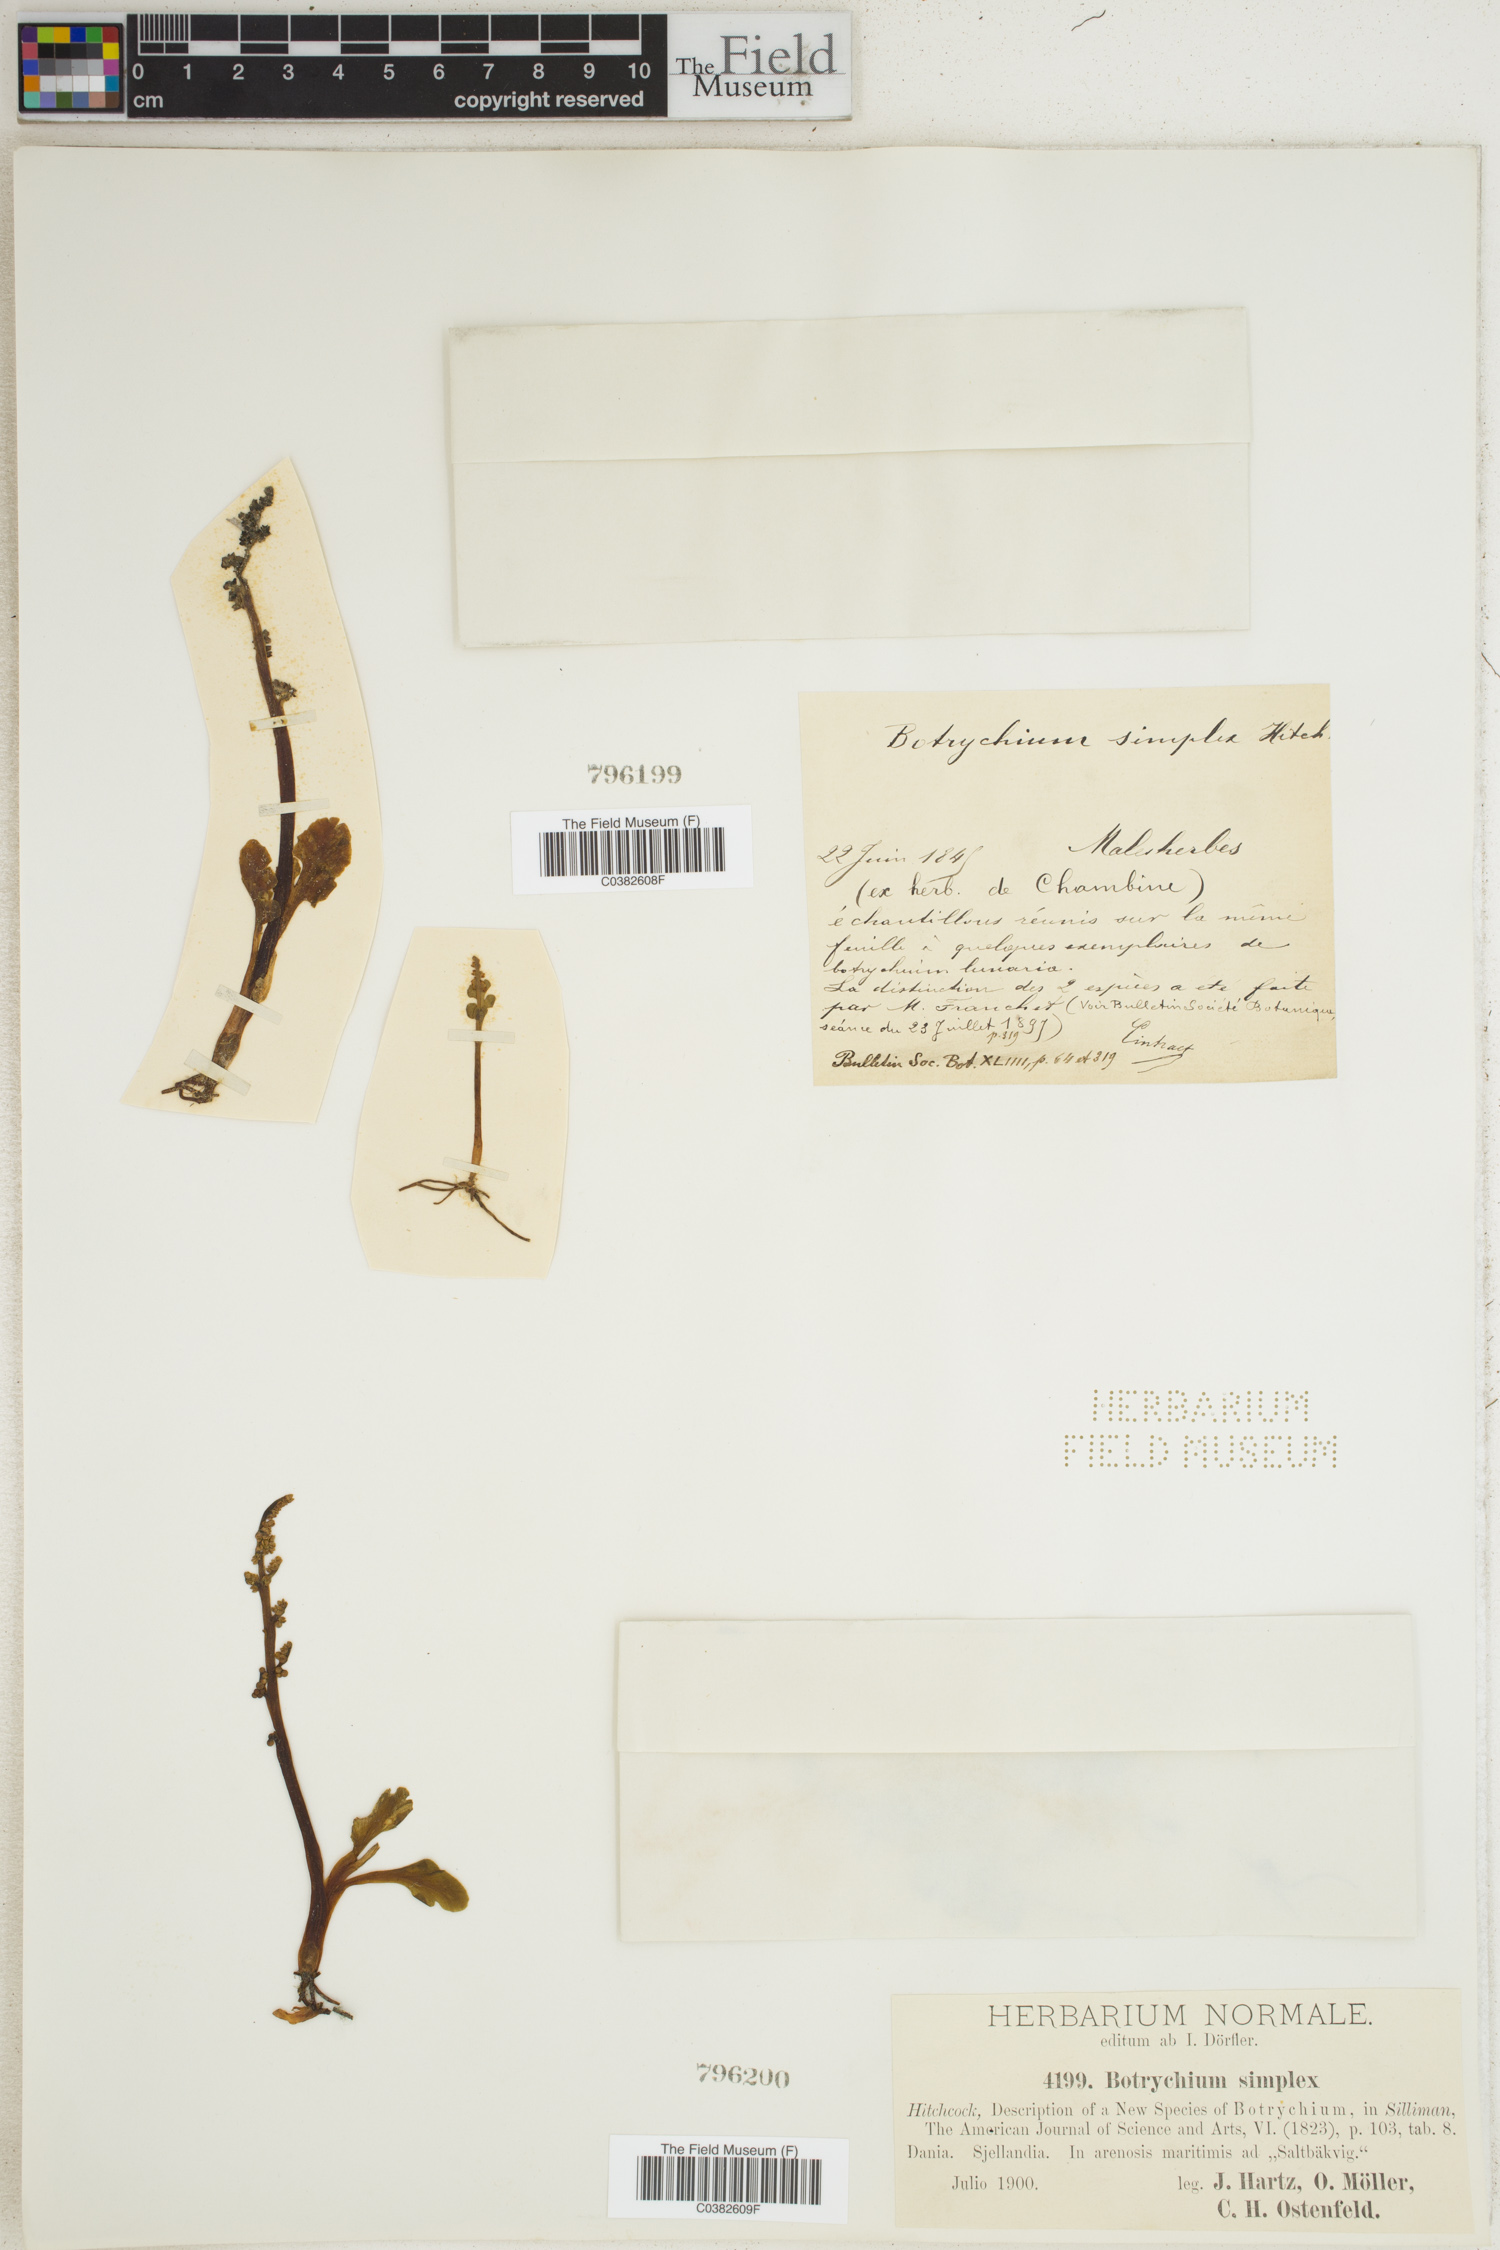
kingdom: Plantae
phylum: Tracheophyta
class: Polypodiopsida
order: Ophioglossales
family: Ophioglossaceae
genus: Botrychium
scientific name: Botrychium simplex
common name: Least moonwort
